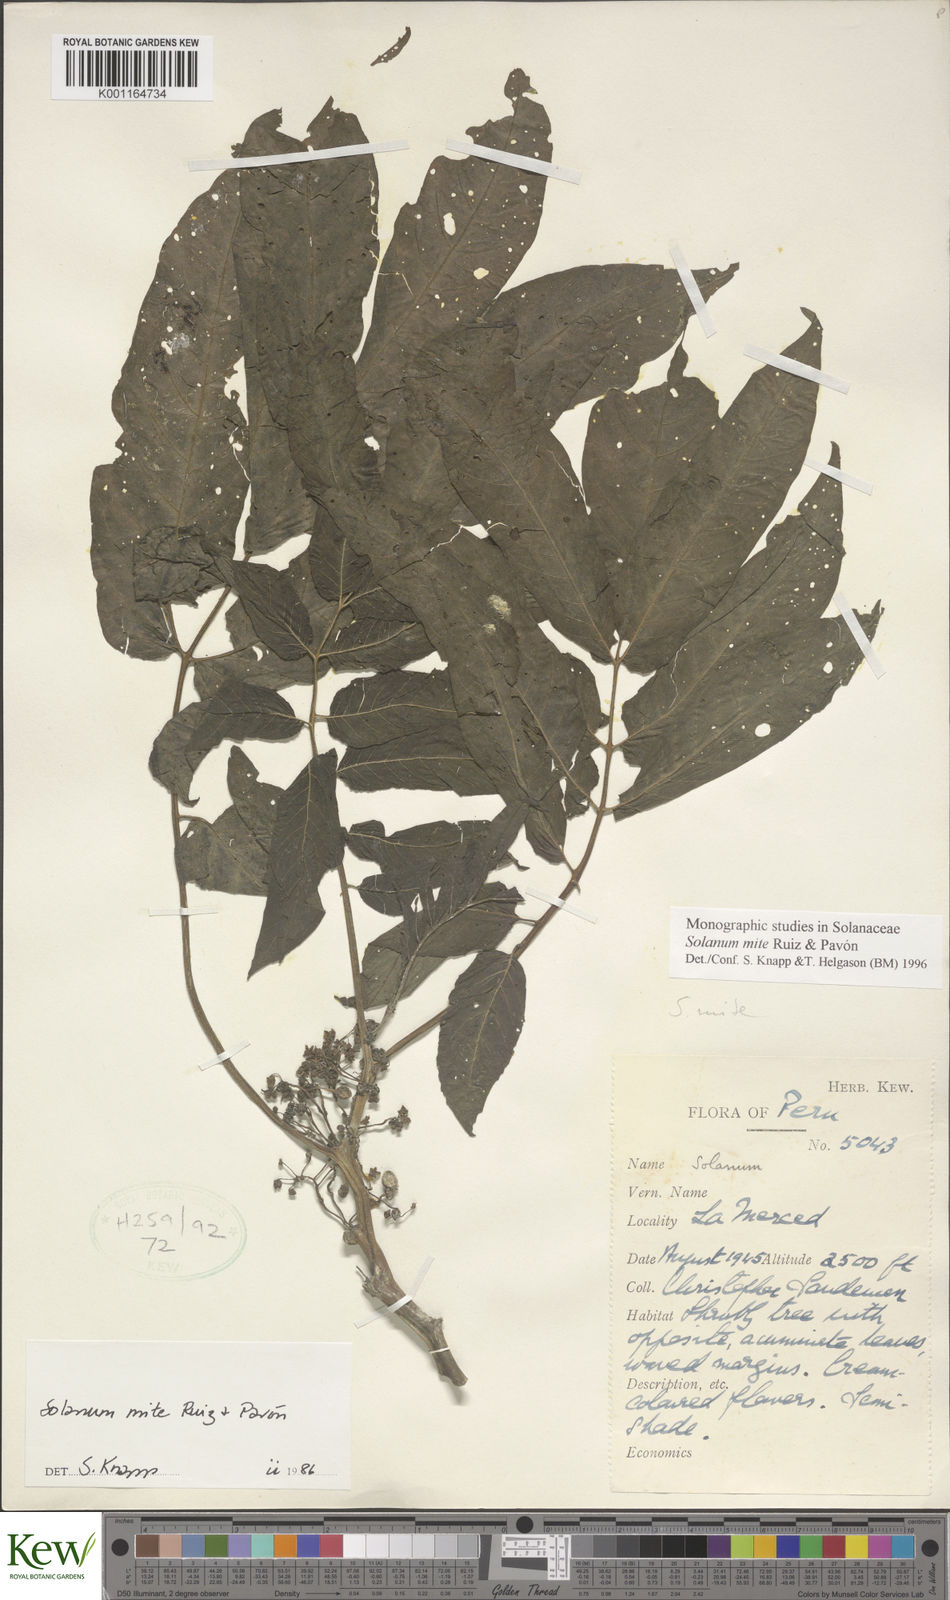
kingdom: Plantae
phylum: Tracheophyta
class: Magnoliopsida
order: Solanales
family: Solanaceae
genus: Solanum
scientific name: Solanum mite
